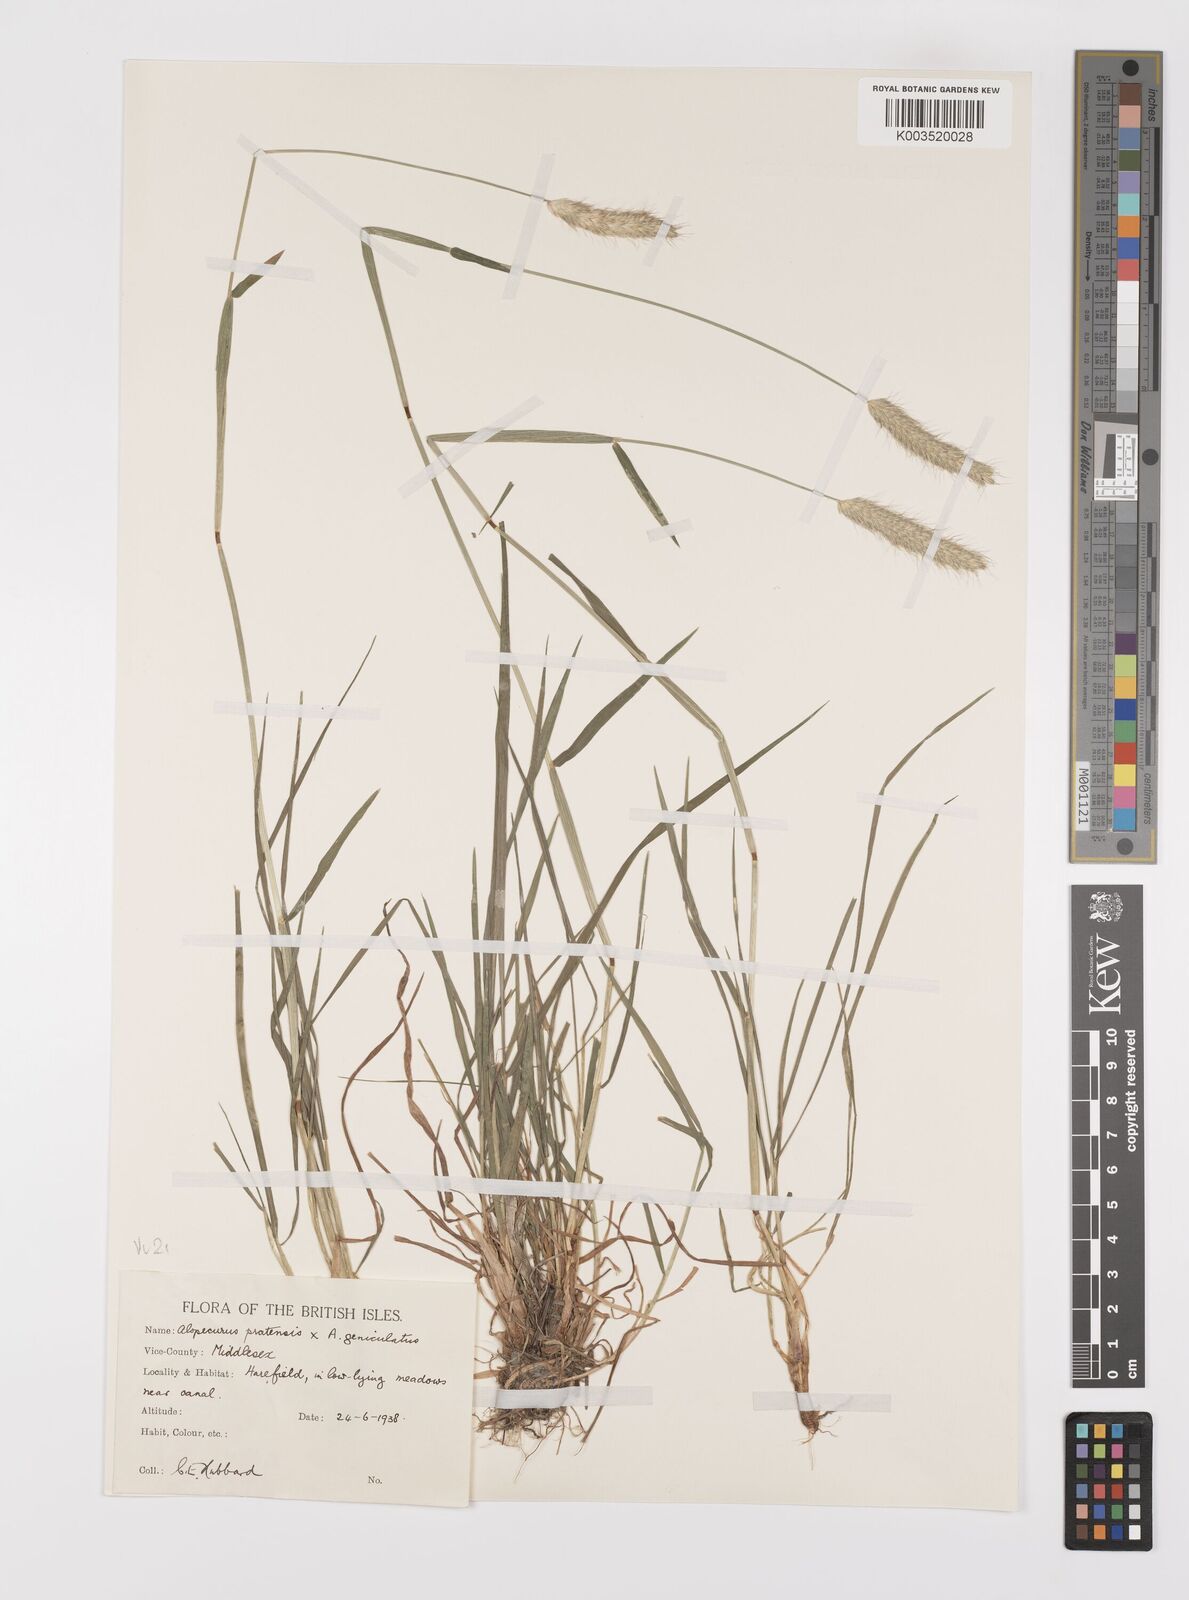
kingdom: Plantae
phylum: Tracheophyta
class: Liliopsida
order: Poales
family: Poaceae
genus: Alopecurus
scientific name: Alopecurus brachystylus
